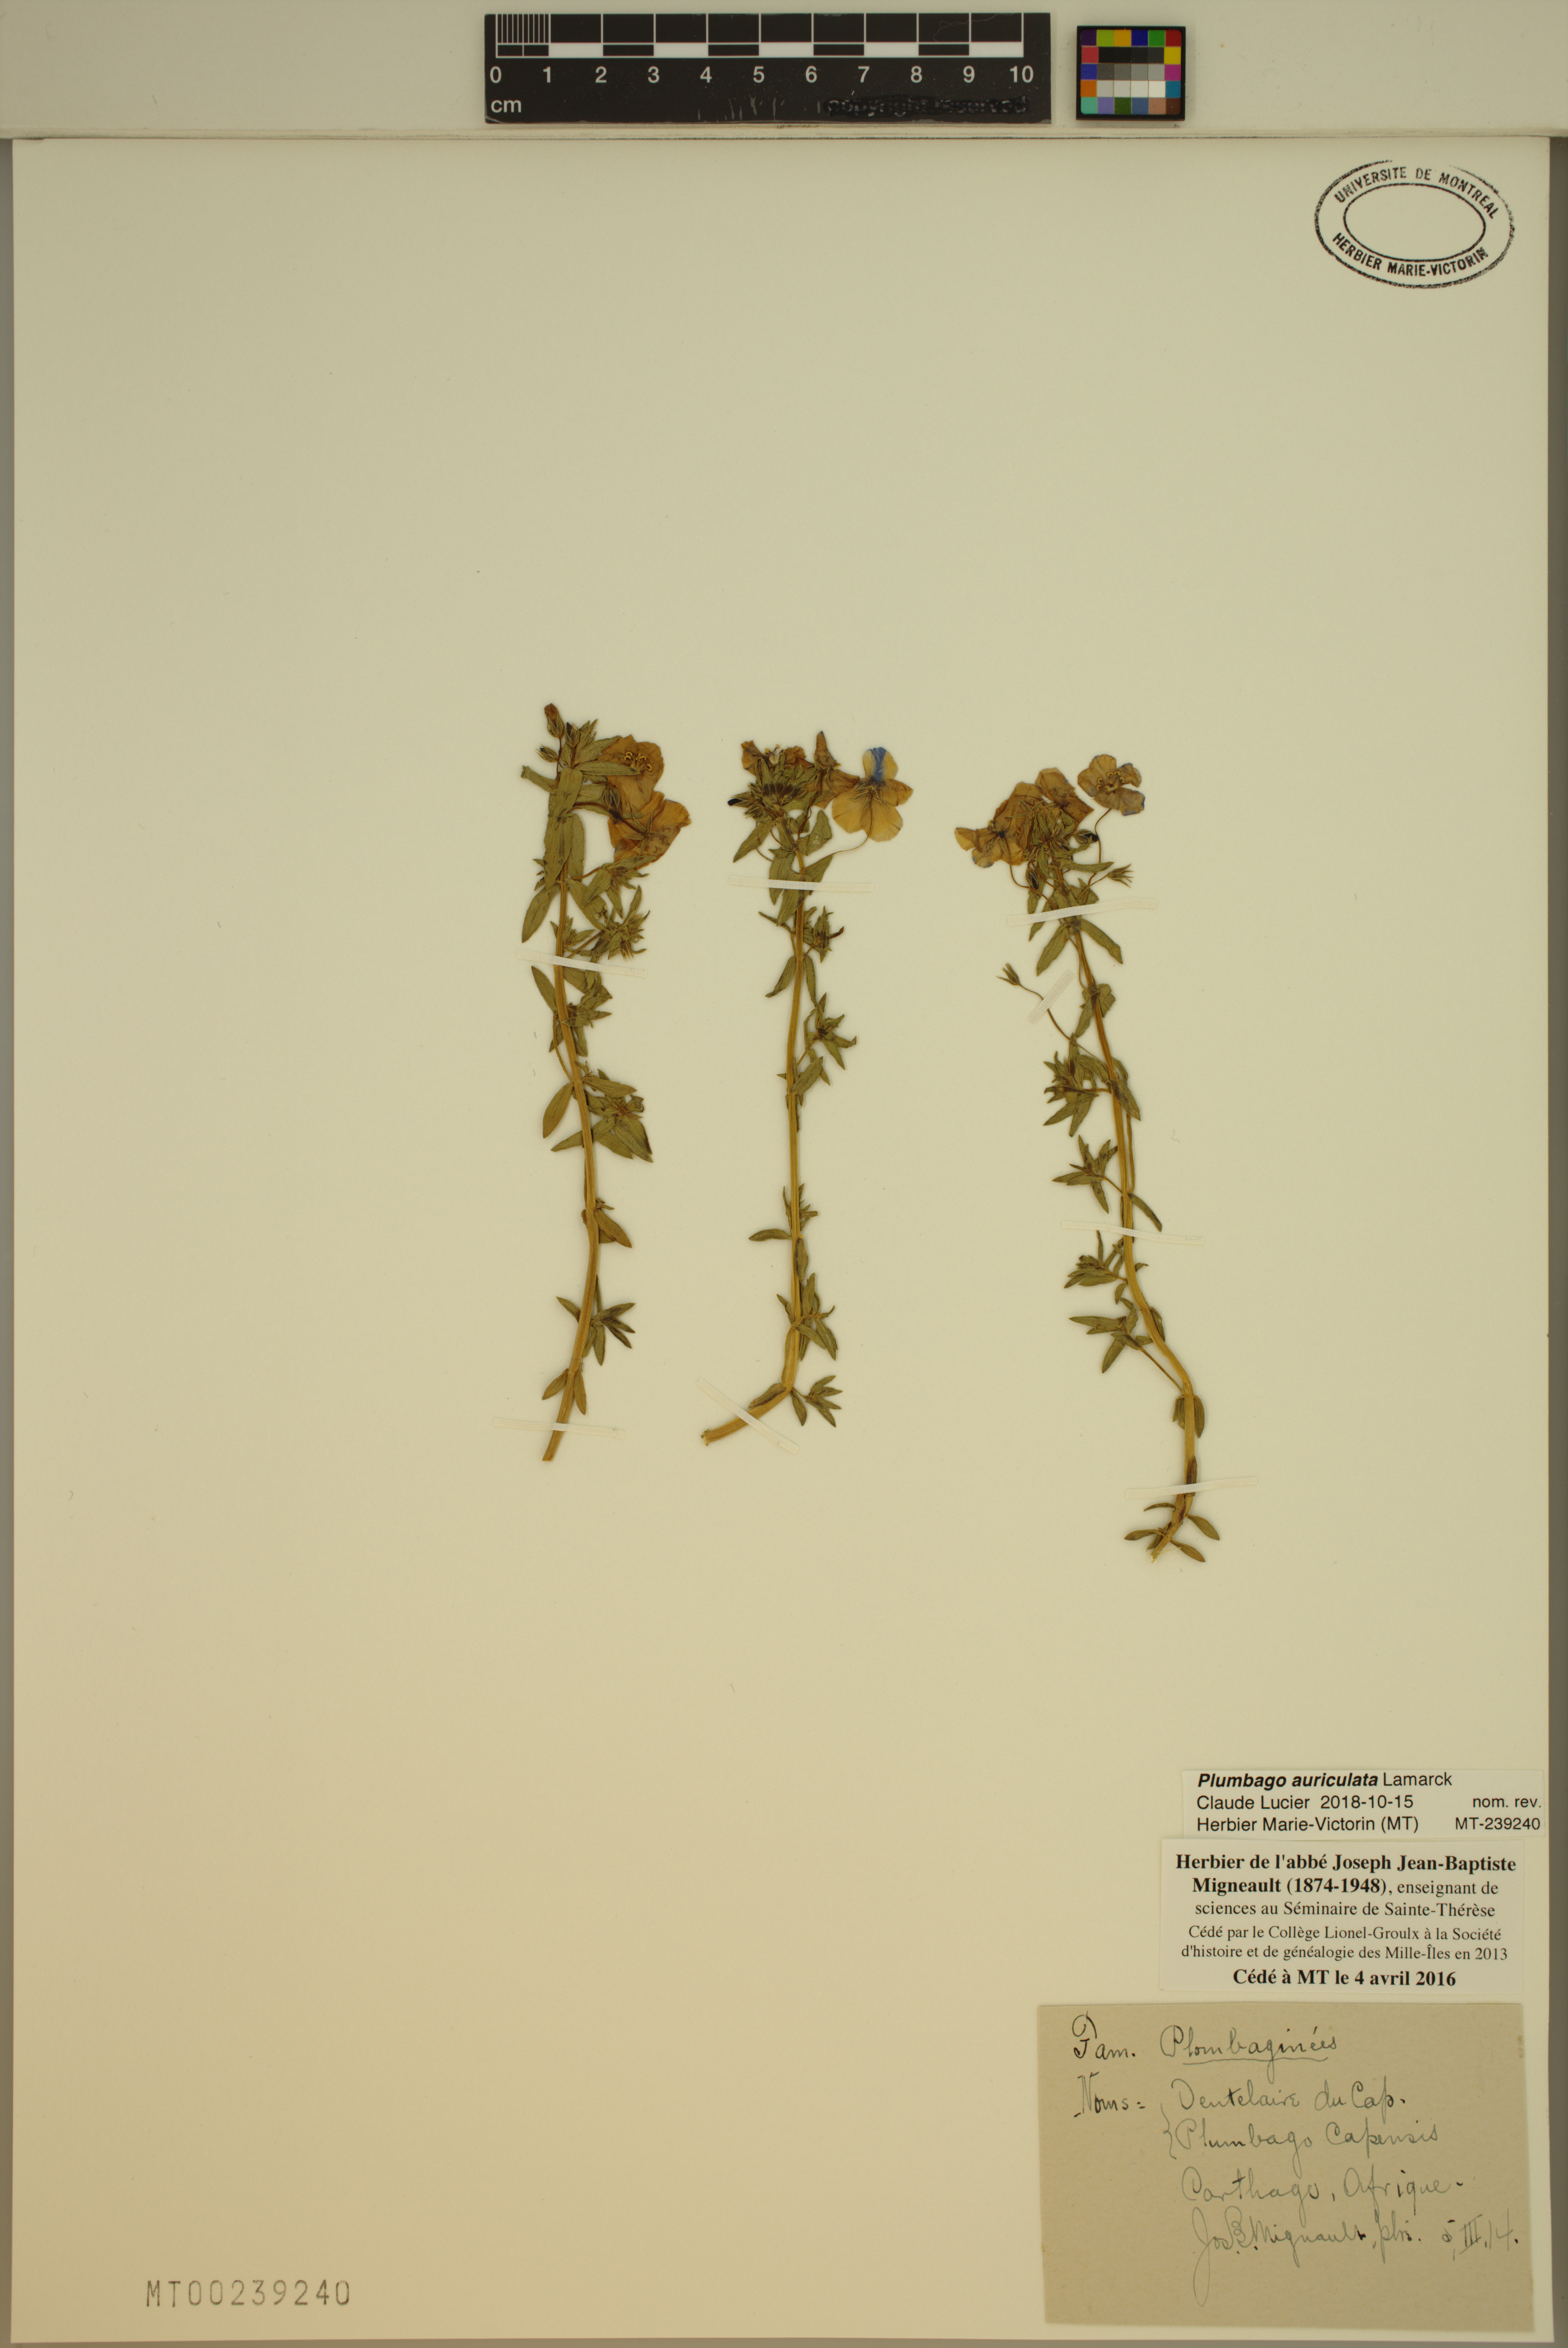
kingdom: Plantae
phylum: Tracheophyta
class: Magnoliopsida
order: Caryophyllales
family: Plumbaginaceae
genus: Plumbago
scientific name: Plumbago auriculata
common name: Cape leadwort
